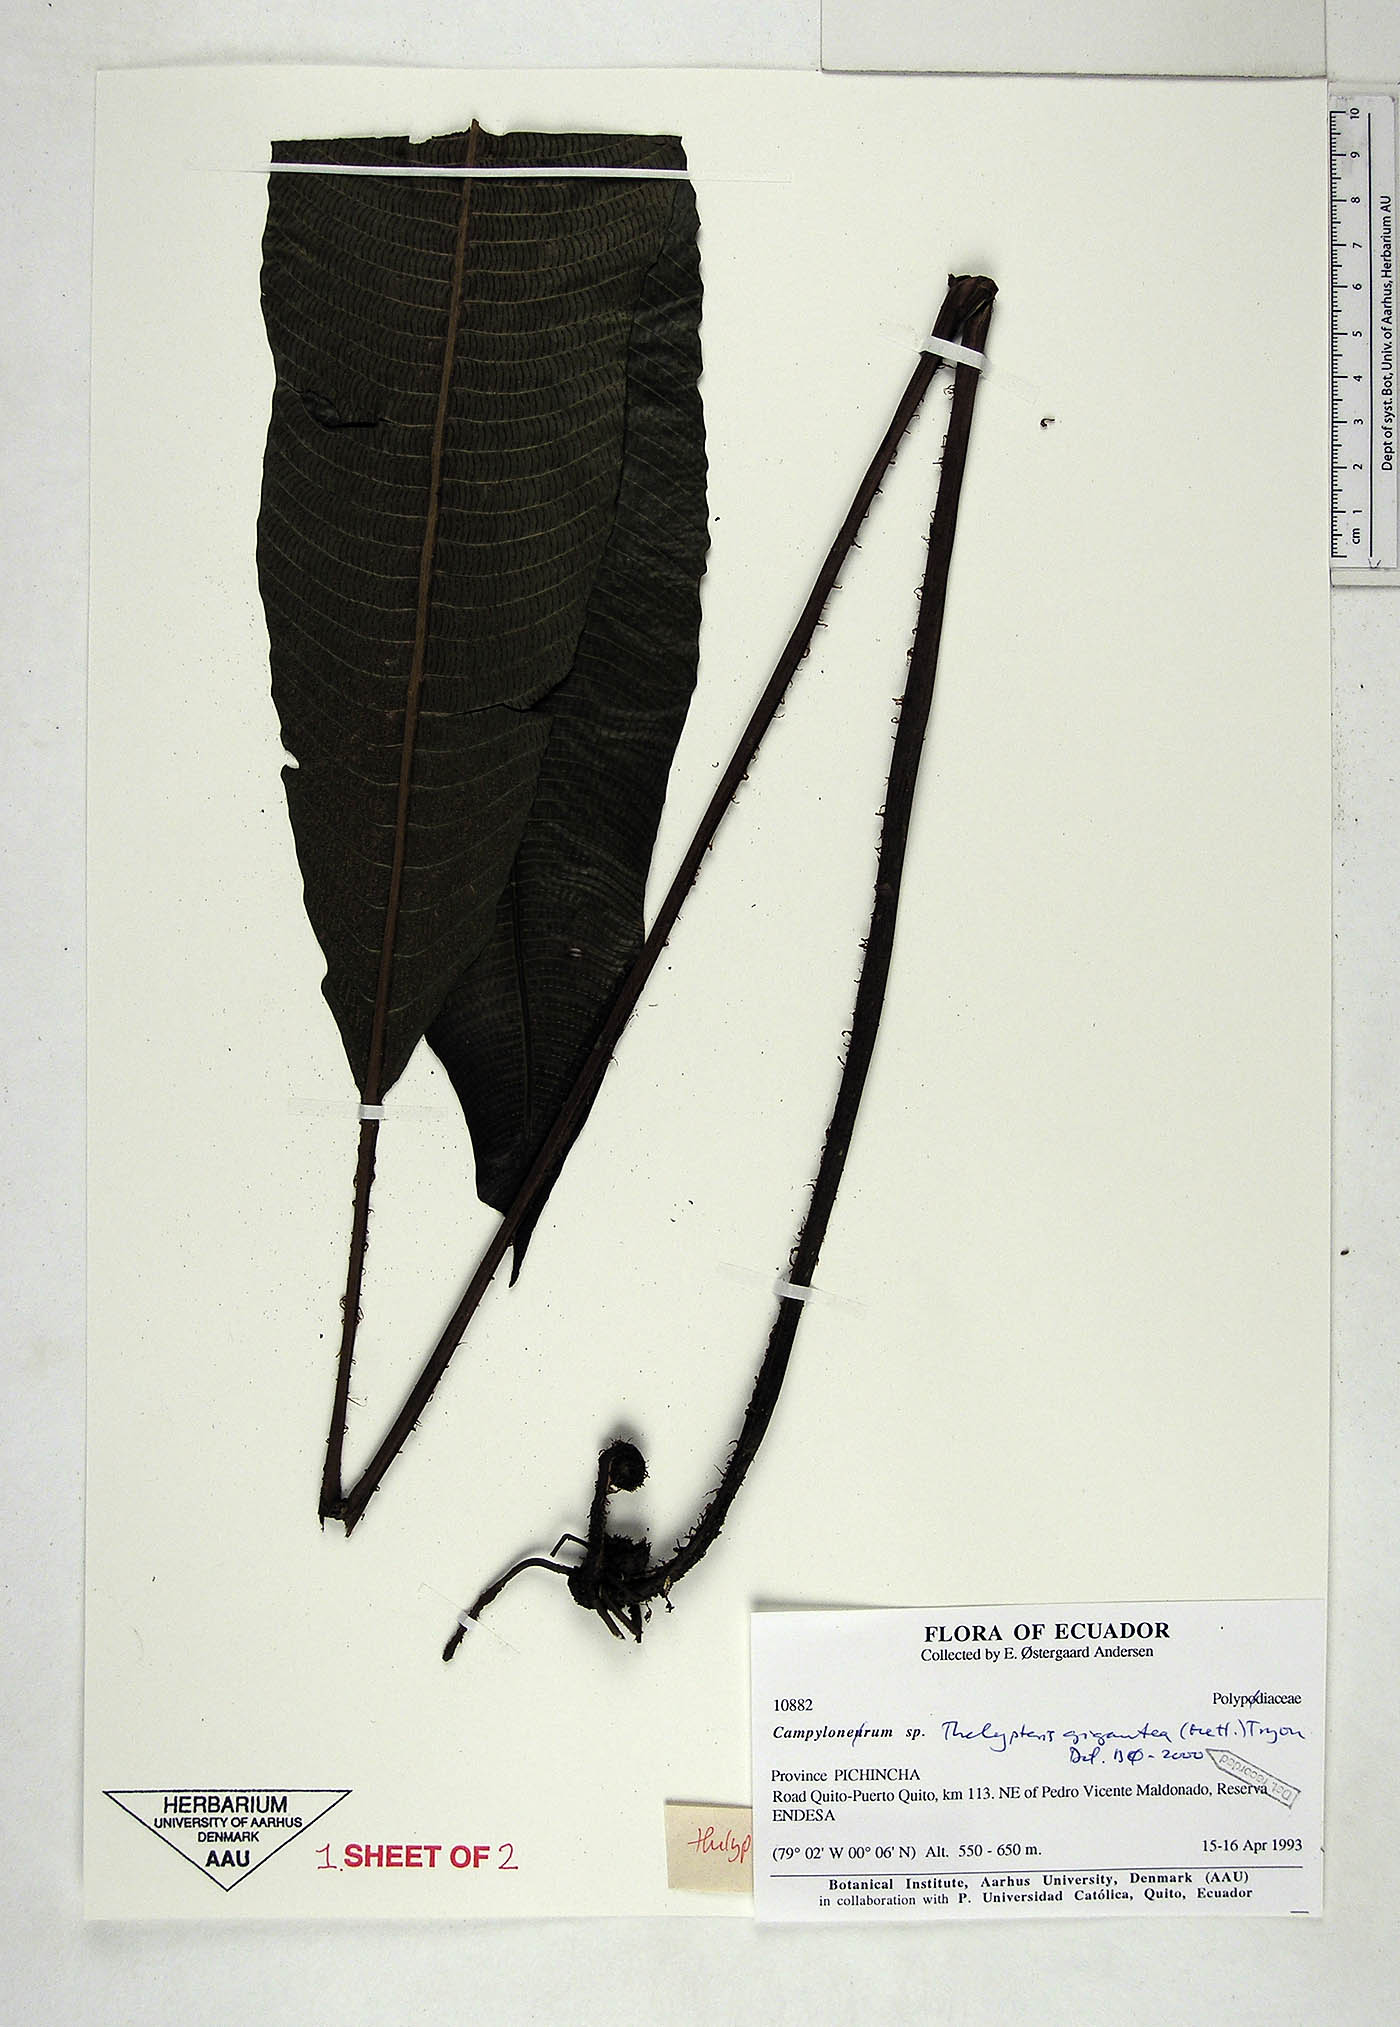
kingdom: Plantae
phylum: Tracheophyta
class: Polypodiopsida
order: Polypodiales
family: Thelypteridaceae
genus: Meniscium
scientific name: Meniscium giganteum
